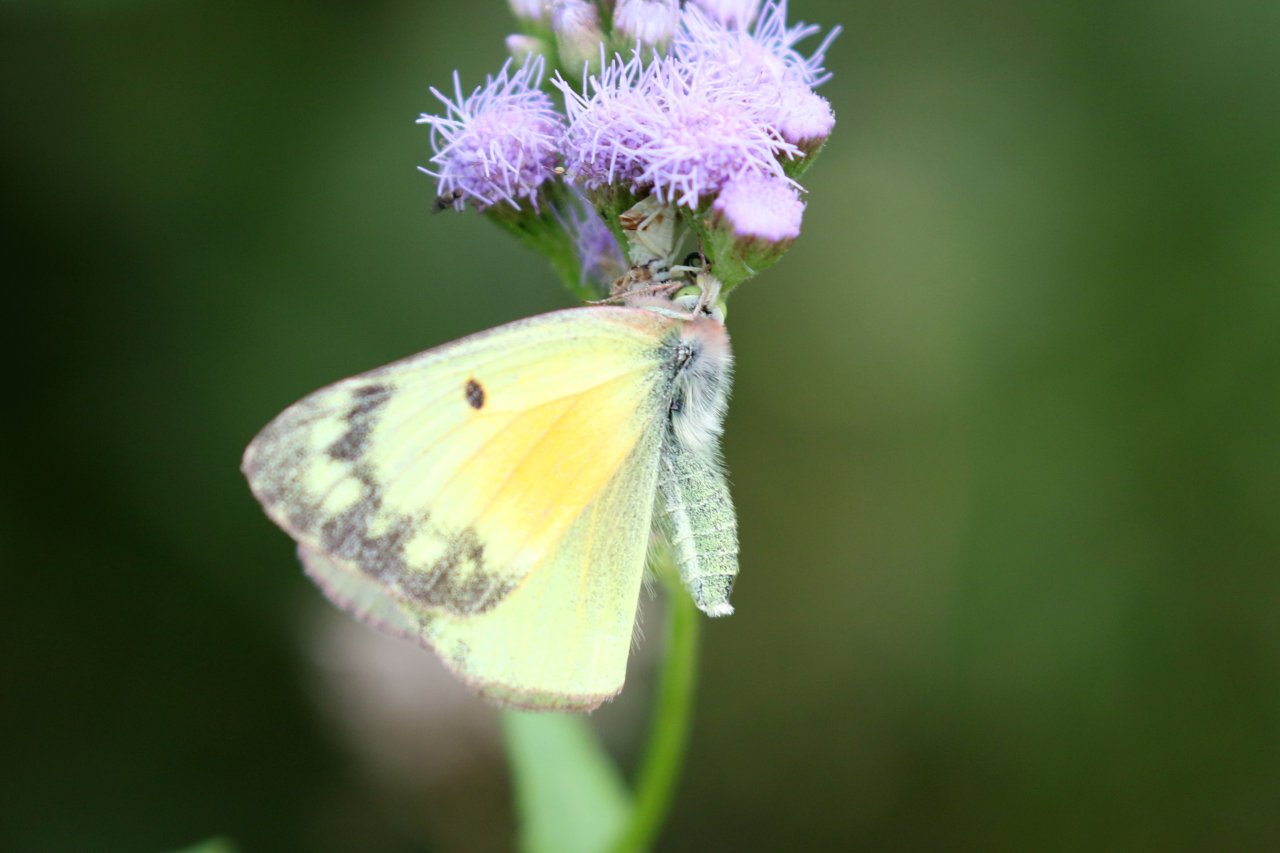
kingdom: Animalia
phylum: Arthropoda
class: Insecta
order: Lepidoptera
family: Pieridae
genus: Colias
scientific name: Colias eurytheme
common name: Orange Sulphur
